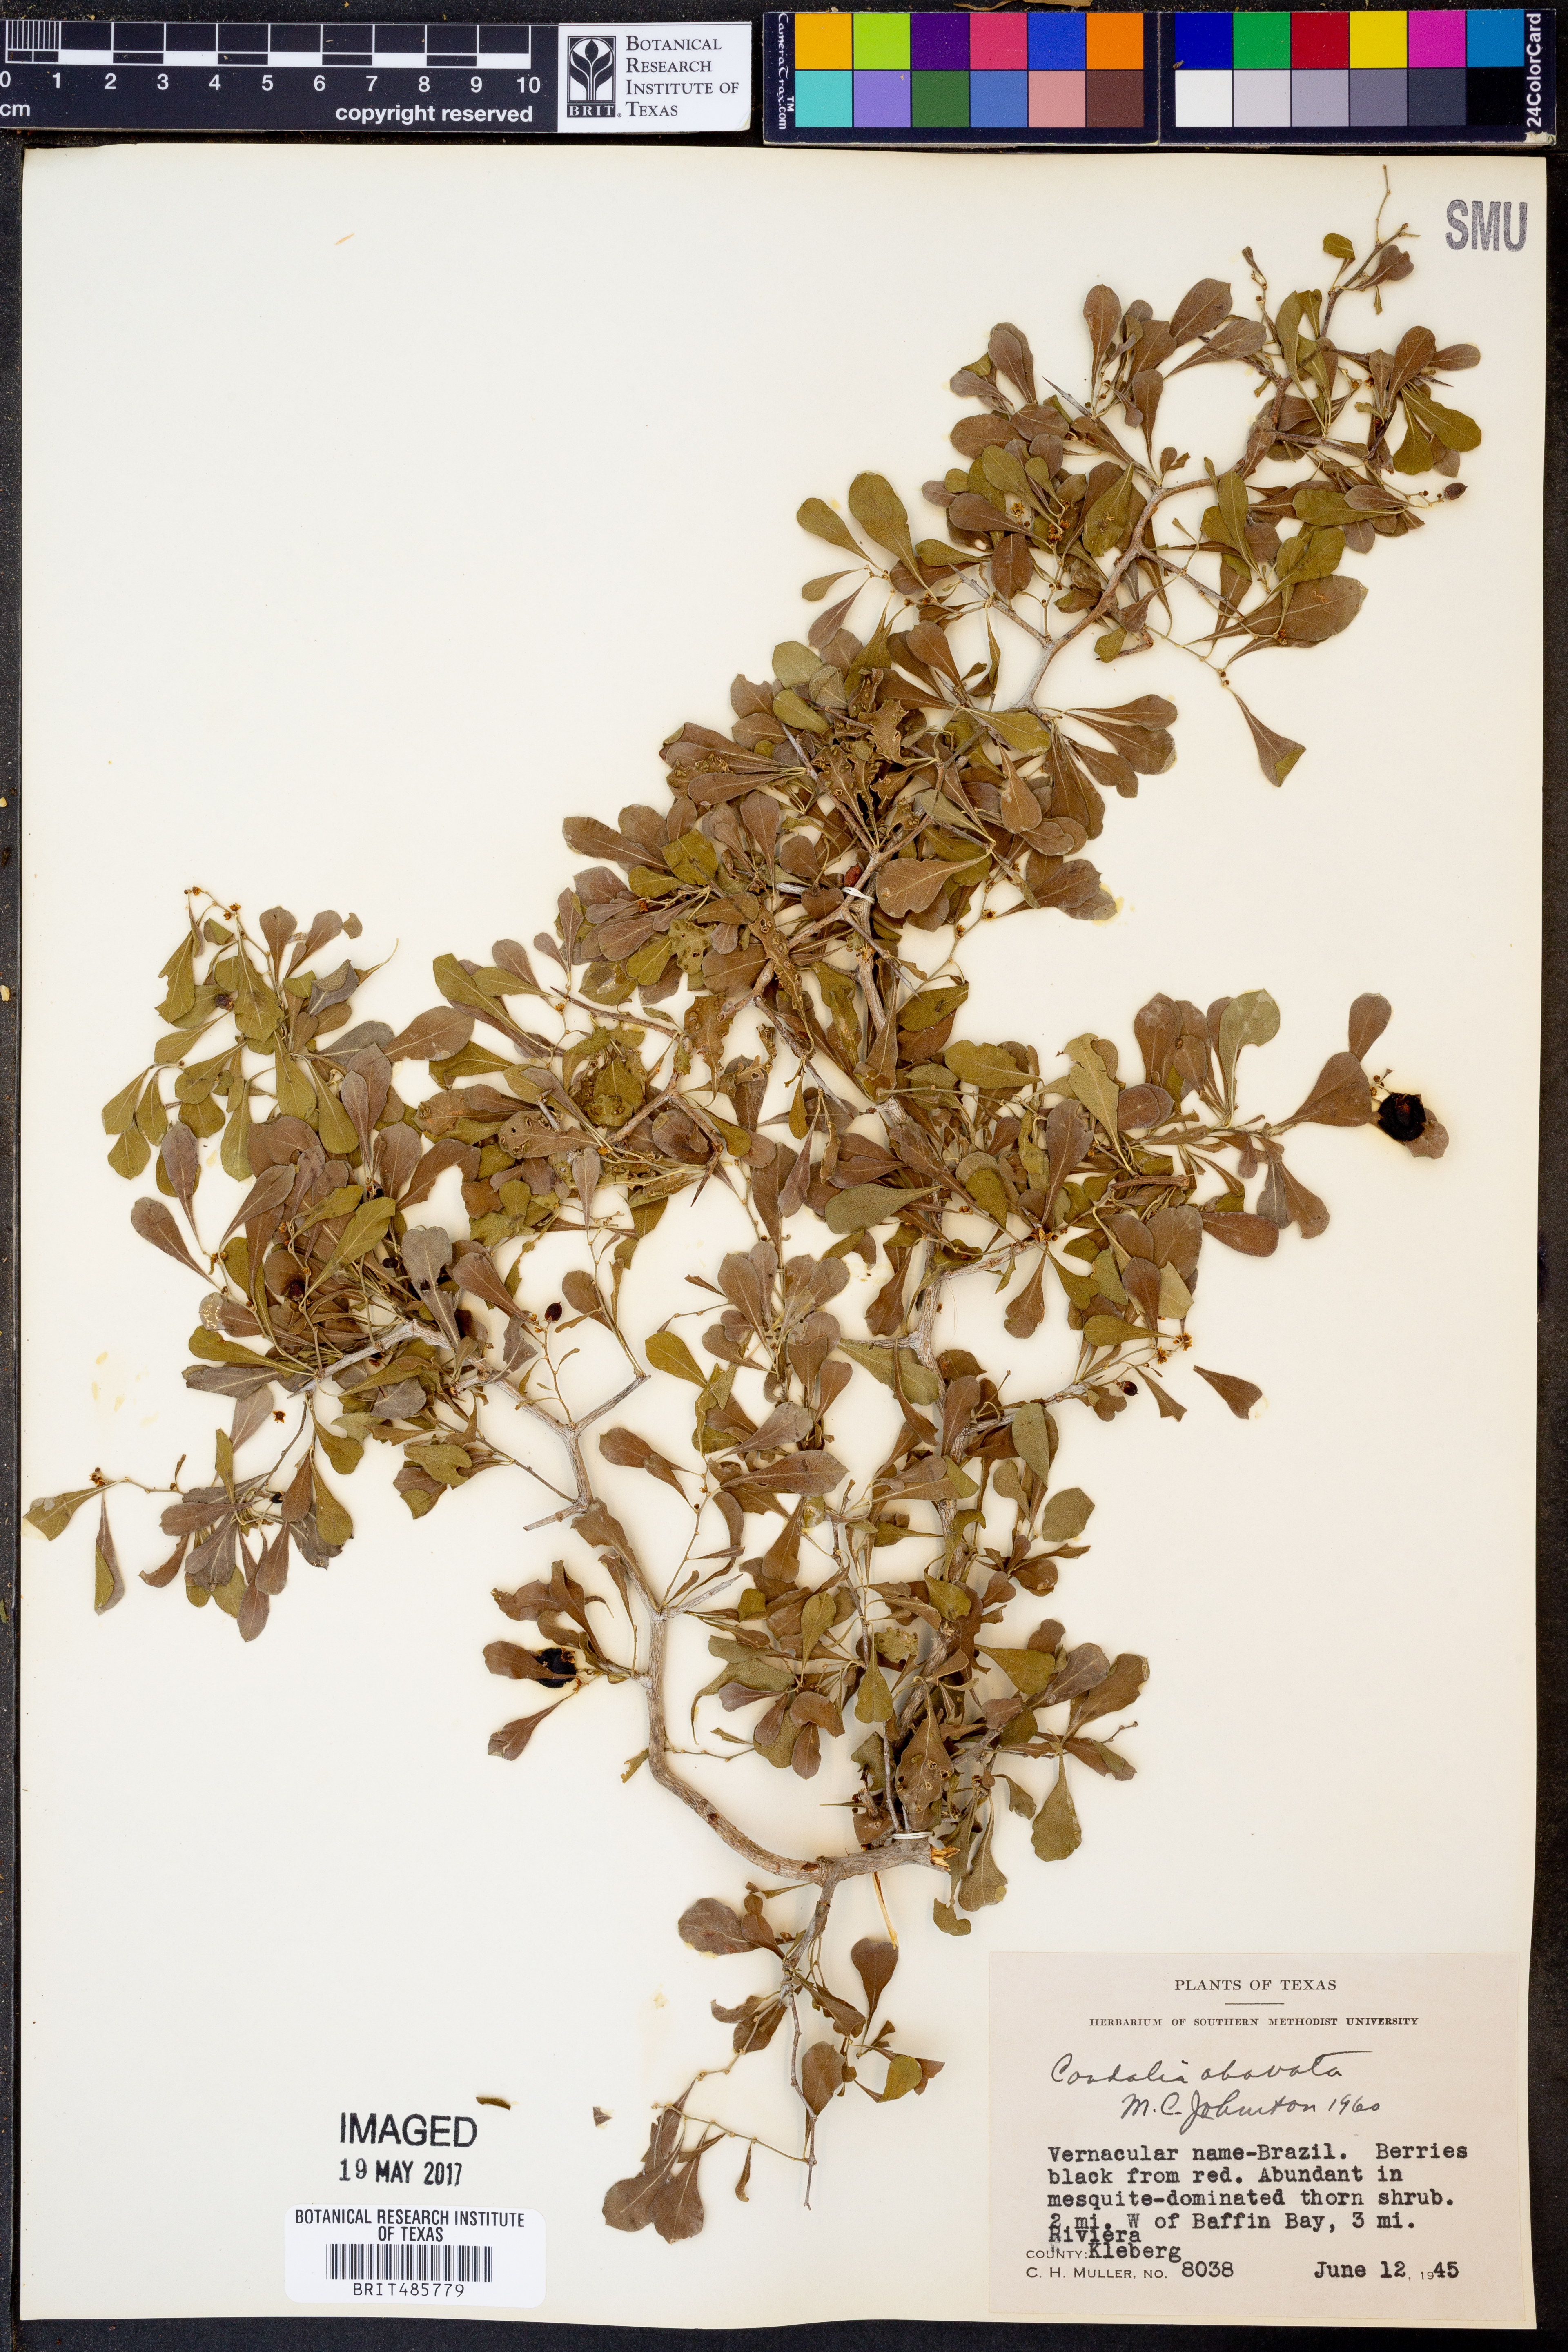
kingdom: Plantae
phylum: Tracheophyta
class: Magnoliopsida
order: Rosales
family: Rhamnaceae
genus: Condalia
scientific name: Condalia hookeri
